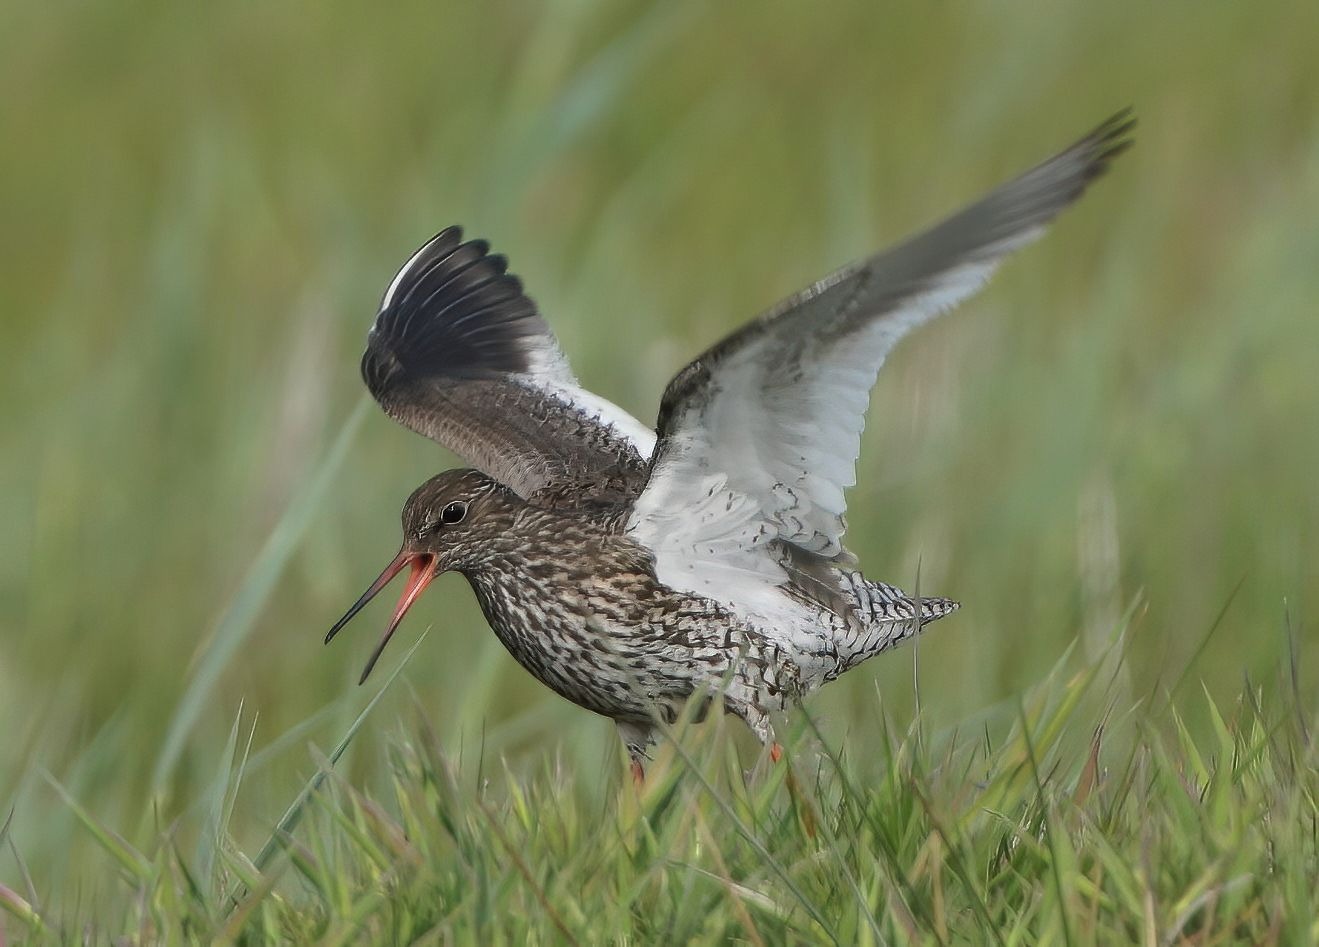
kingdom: Animalia
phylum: Chordata
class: Aves
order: Charadriiformes
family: Scolopacidae
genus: Tringa
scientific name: Tringa totanus
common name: Rødben
